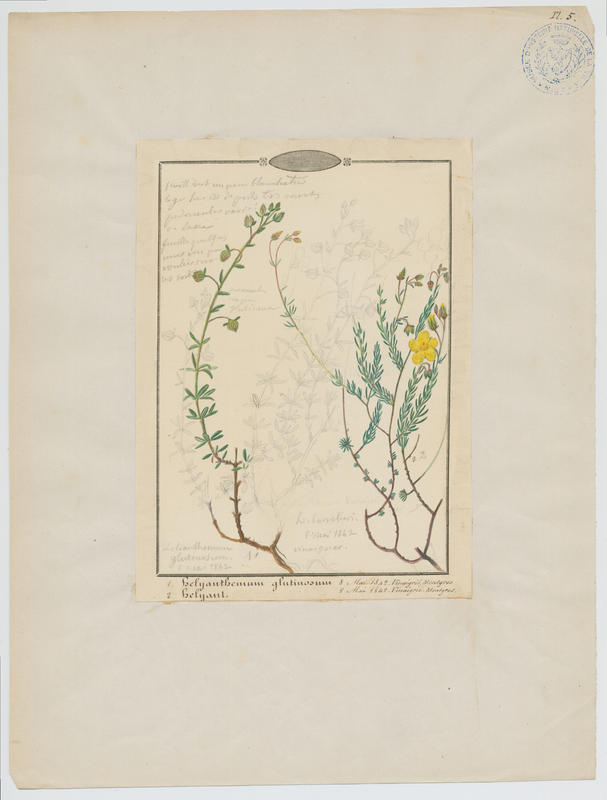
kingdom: Plantae
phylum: Tracheophyta
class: Magnoliopsida
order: Malvales
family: Cistaceae
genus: Fumana
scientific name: Fumana thymifolia
